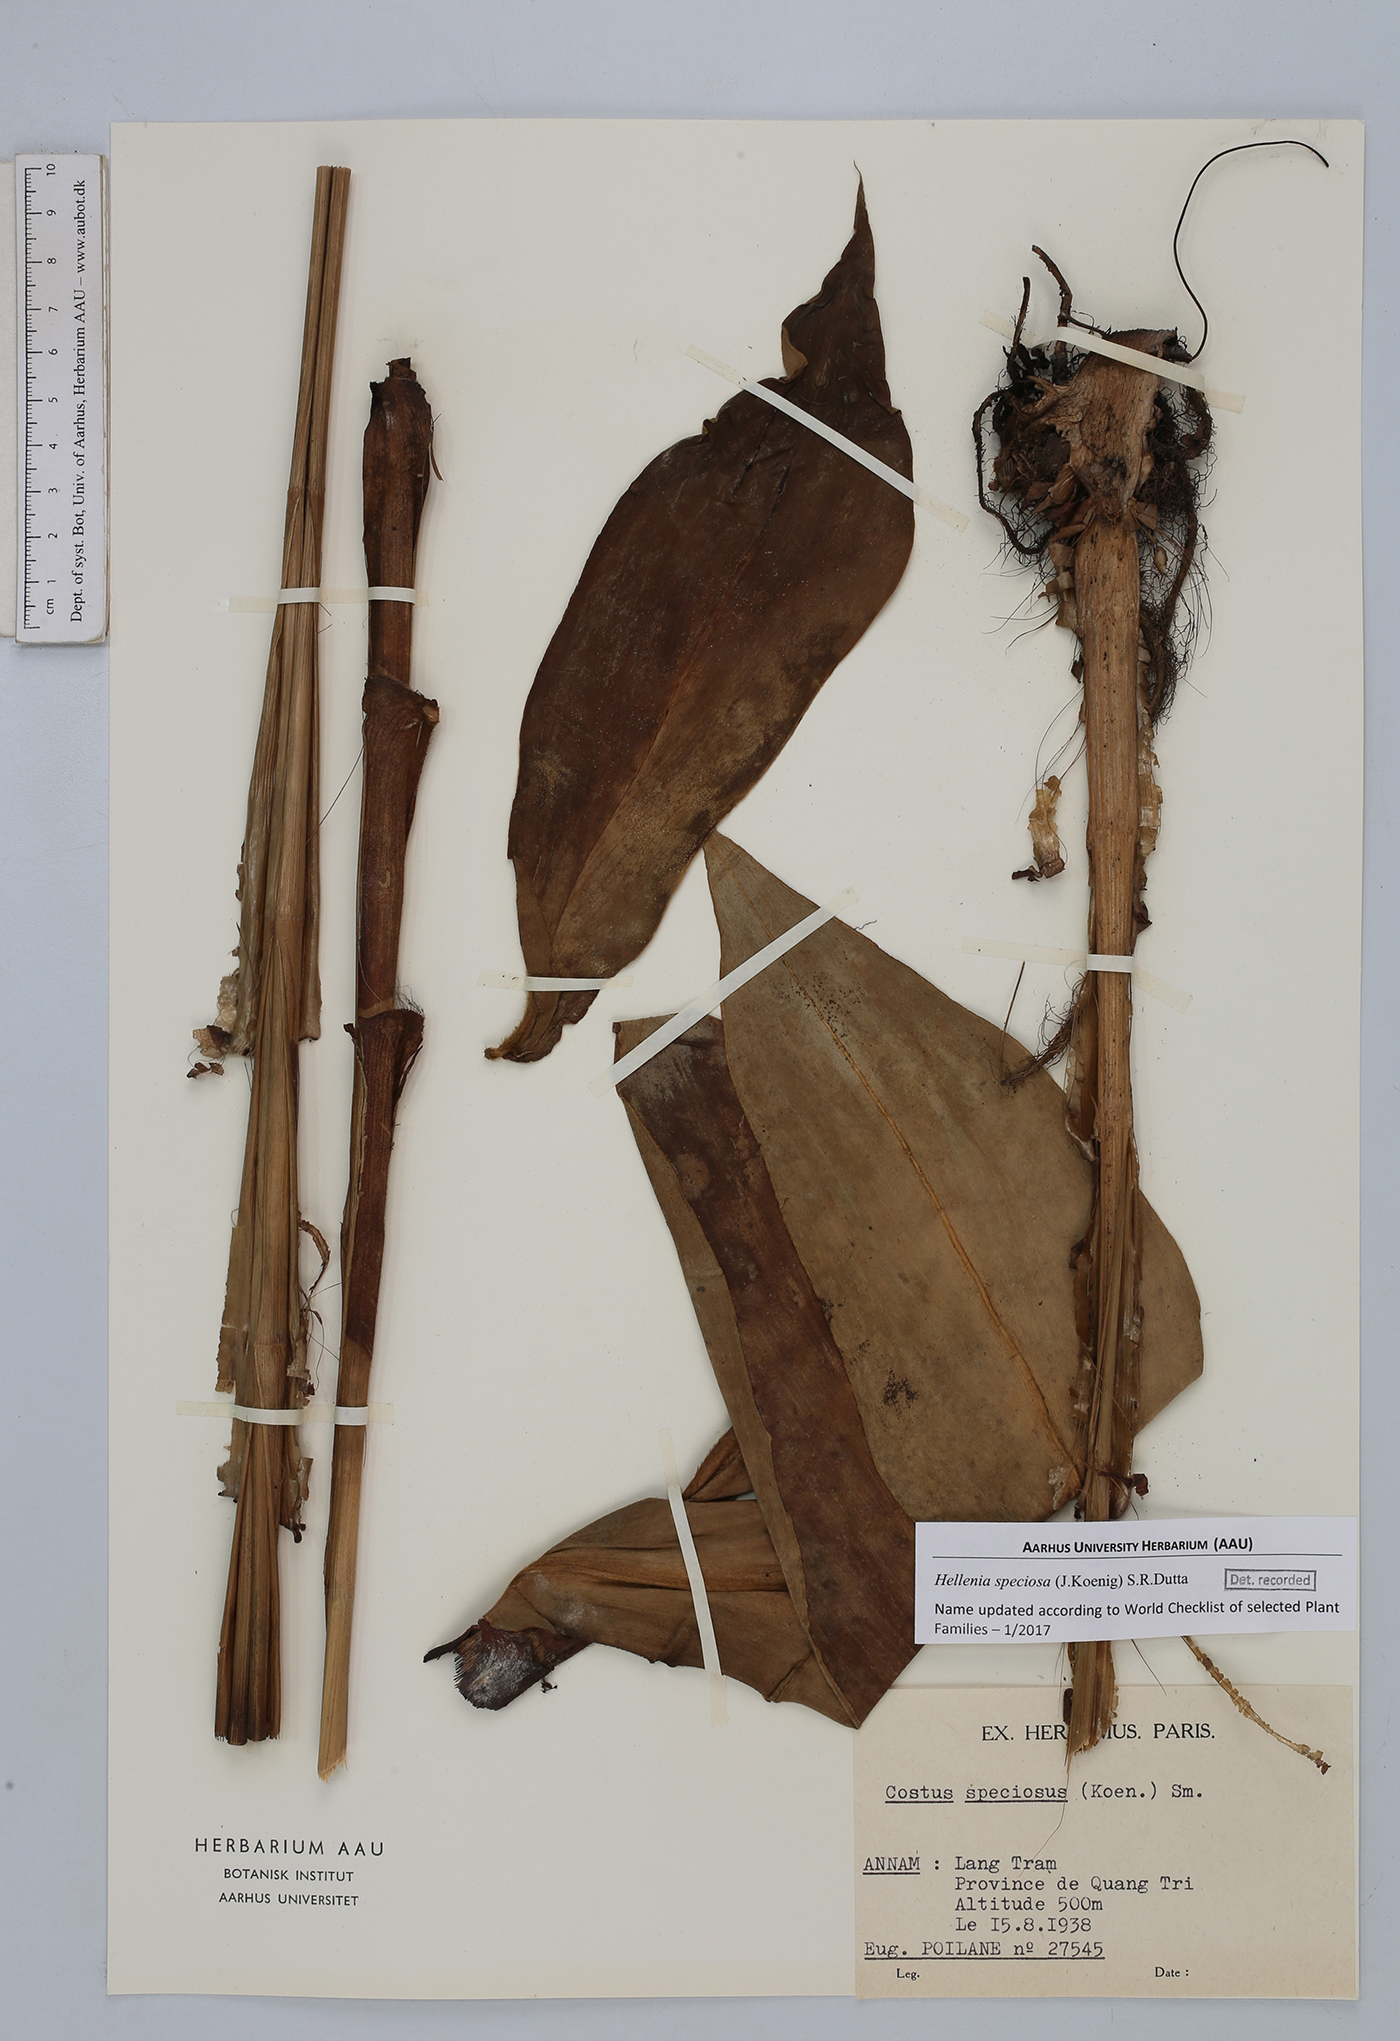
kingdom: Plantae
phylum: Tracheophyta
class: Liliopsida
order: Zingiberales
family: Costaceae
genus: Hellenia
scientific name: Hellenia speciosa
